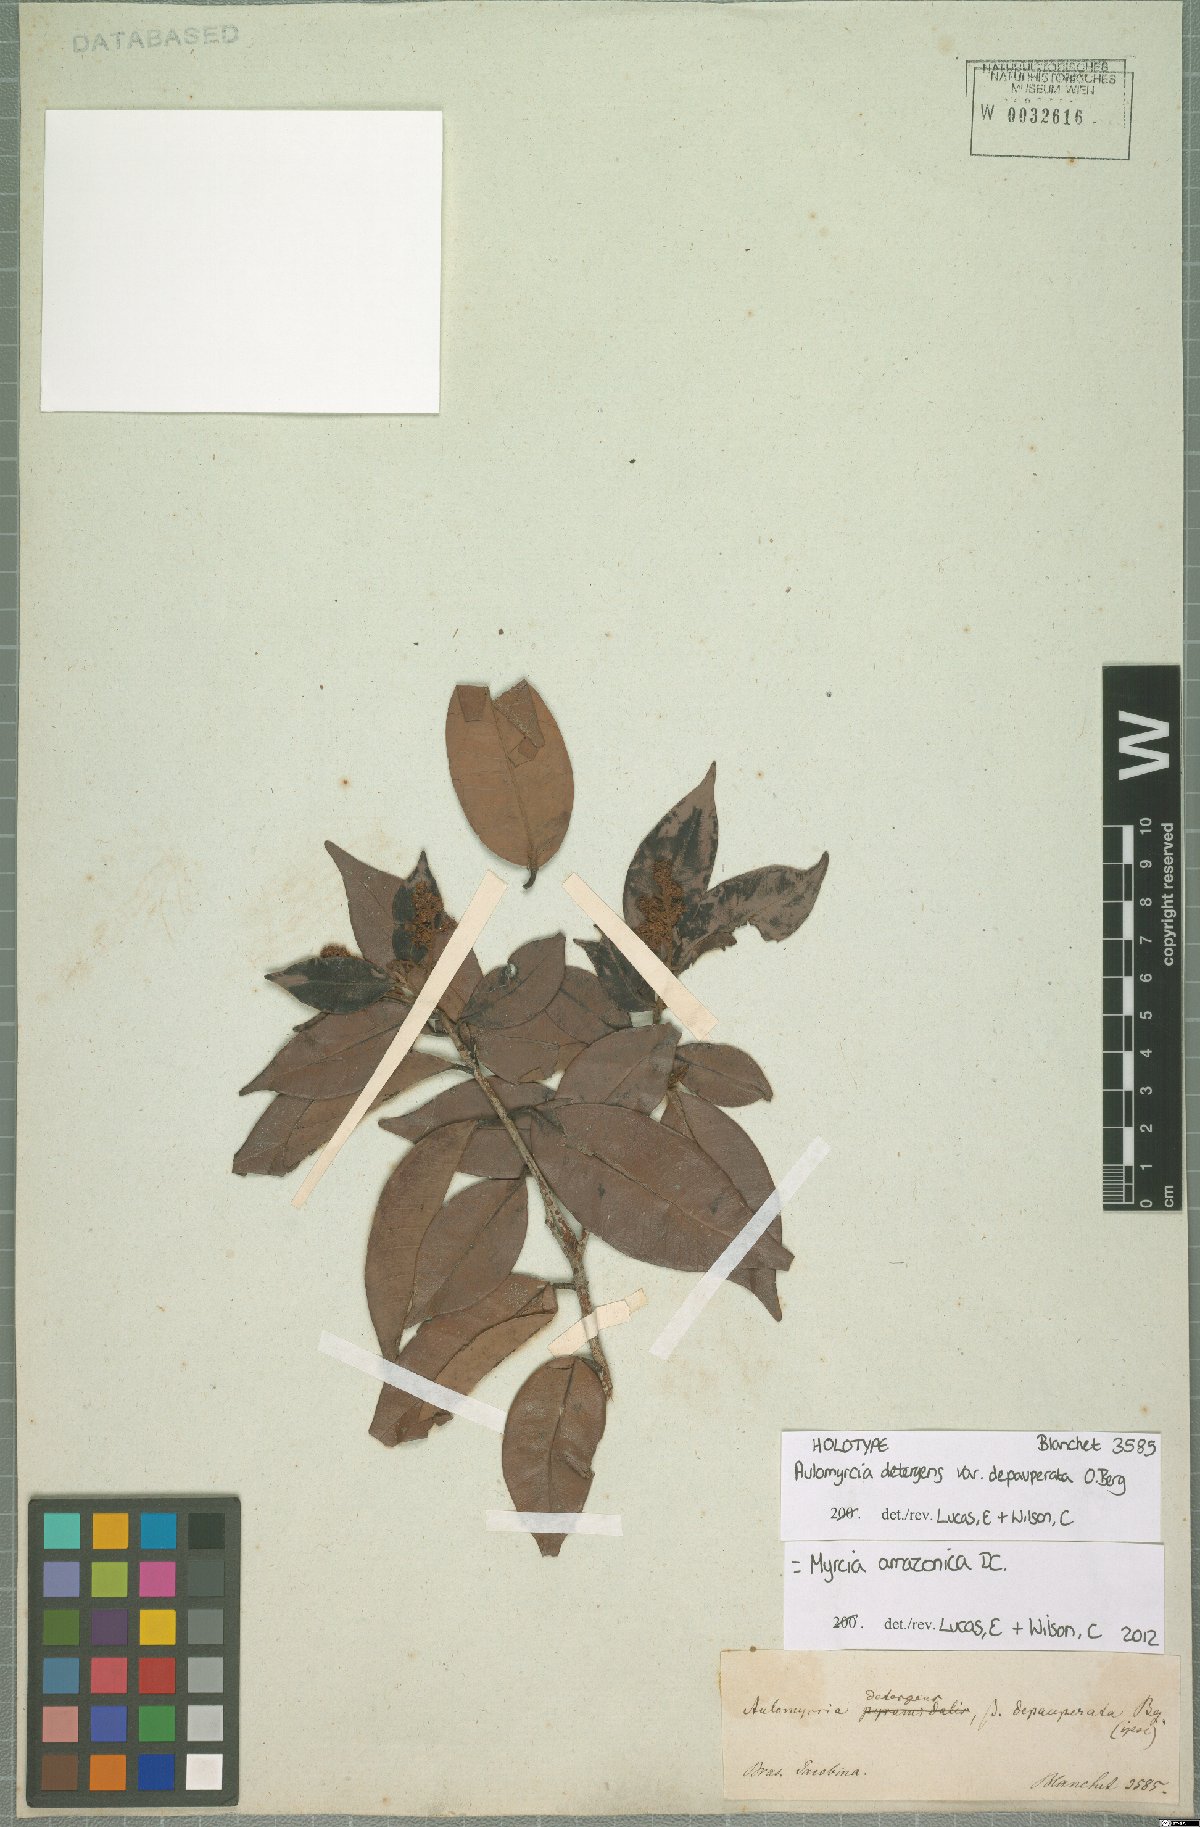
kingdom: Plantae
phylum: Tracheophyta
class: Magnoliopsida
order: Myrtales
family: Myrtaceae
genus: Myrcia
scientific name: Myrcia amazonica
